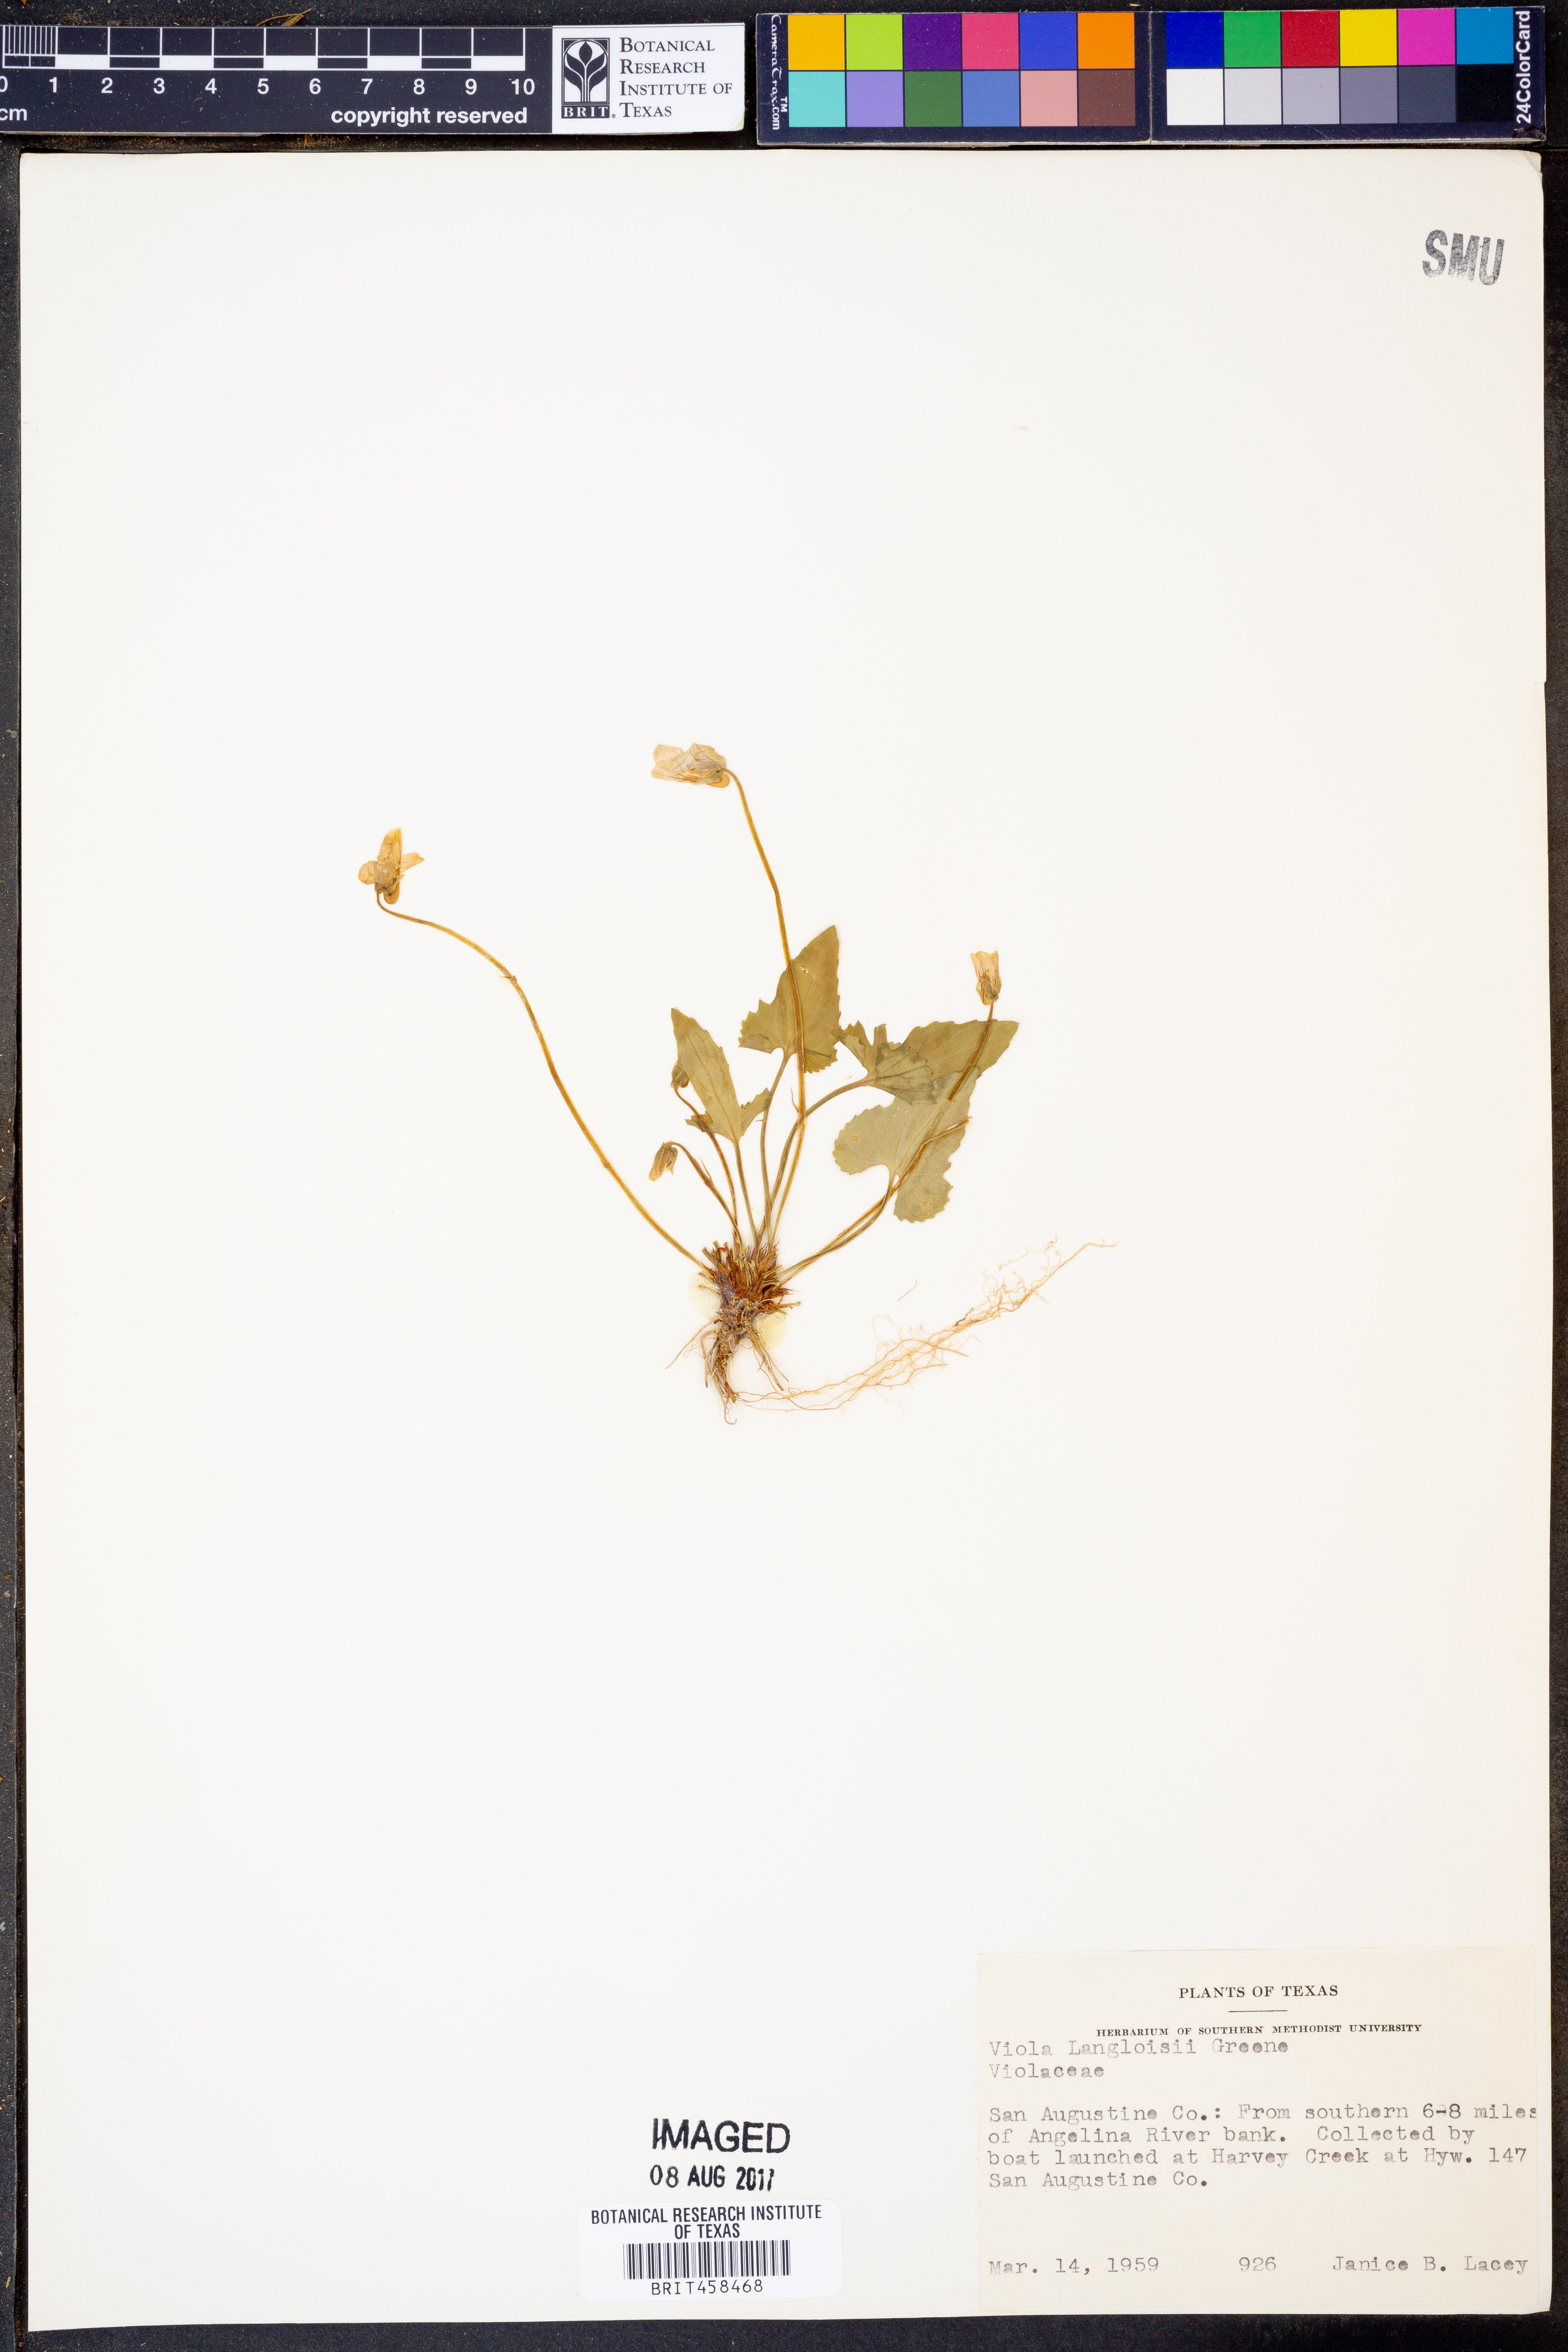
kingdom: Plantae
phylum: Tracheophyta
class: Magnoliopsida
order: Malpighiales
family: Violaceae
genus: Viola
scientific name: Viola langloisii
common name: Langlois' violet
